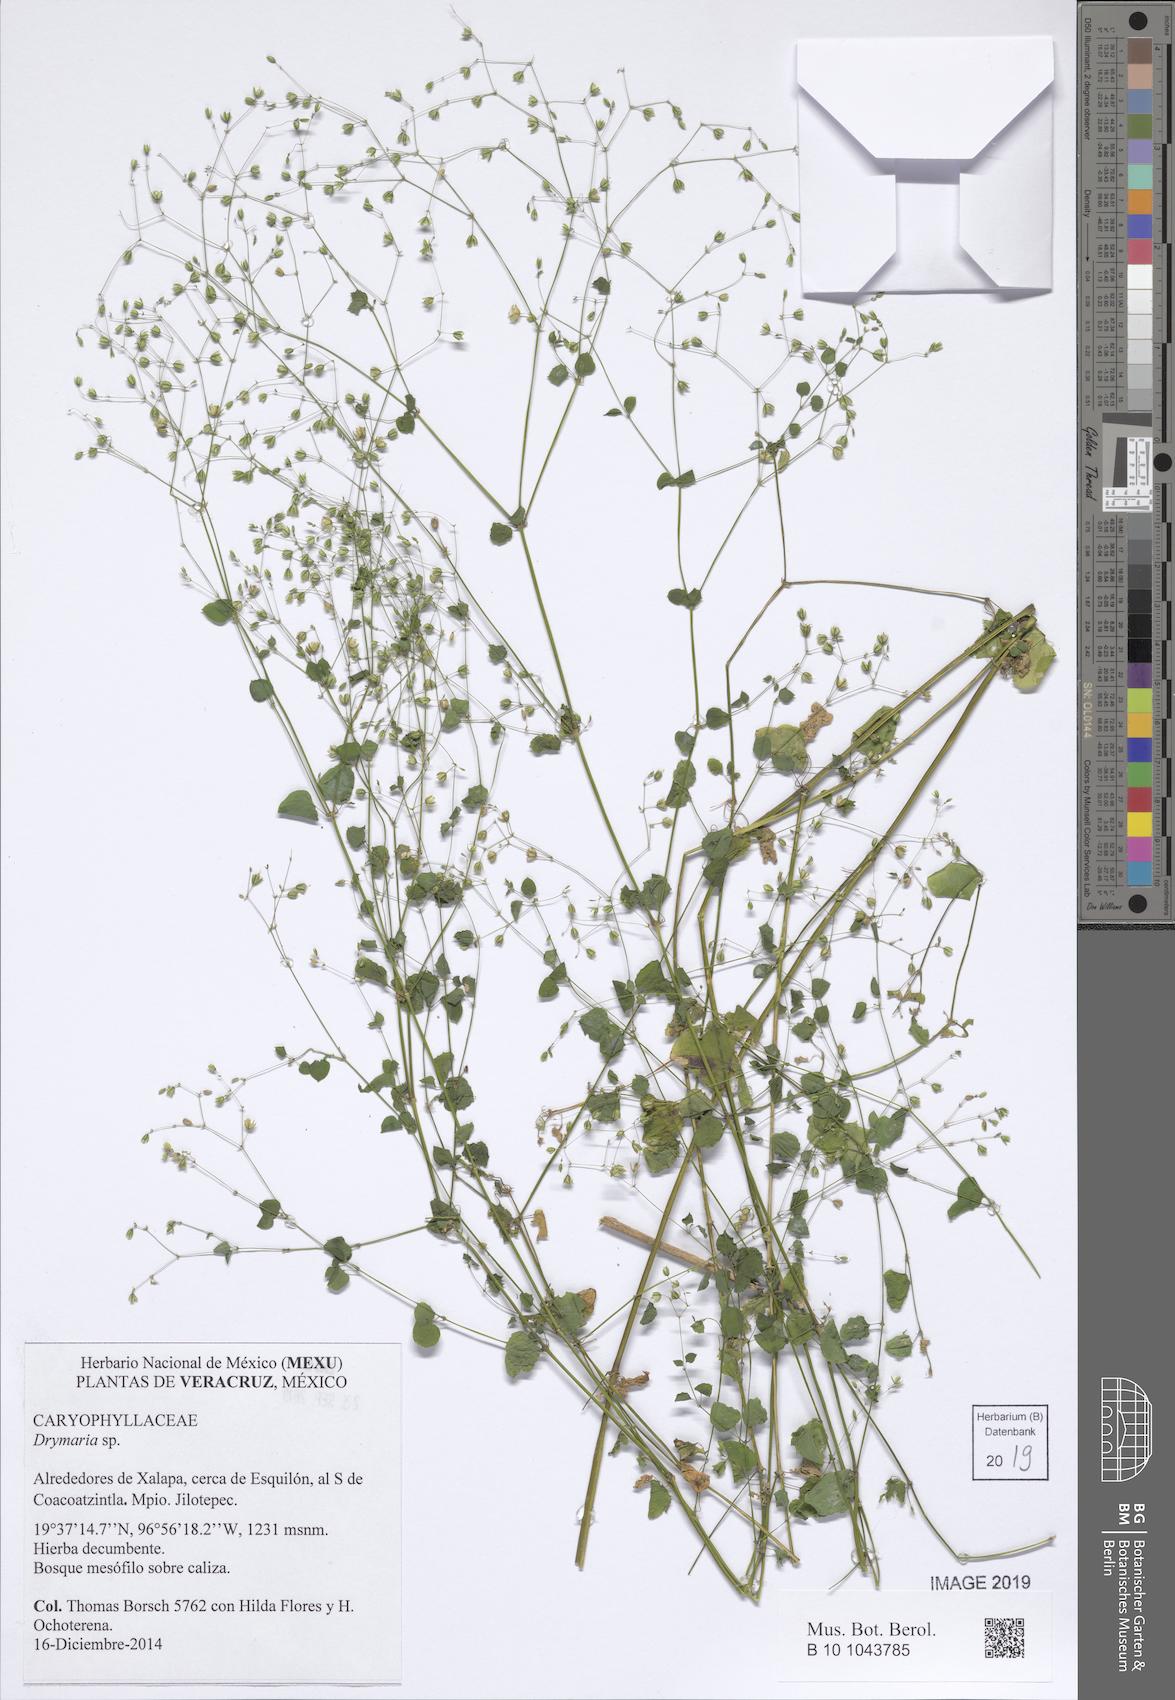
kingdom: Plantae
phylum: Tracheophyta
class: Magnoliopsida
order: Caryophyllales
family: Caryophyllaceae
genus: Drymaria
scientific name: Drymaria
